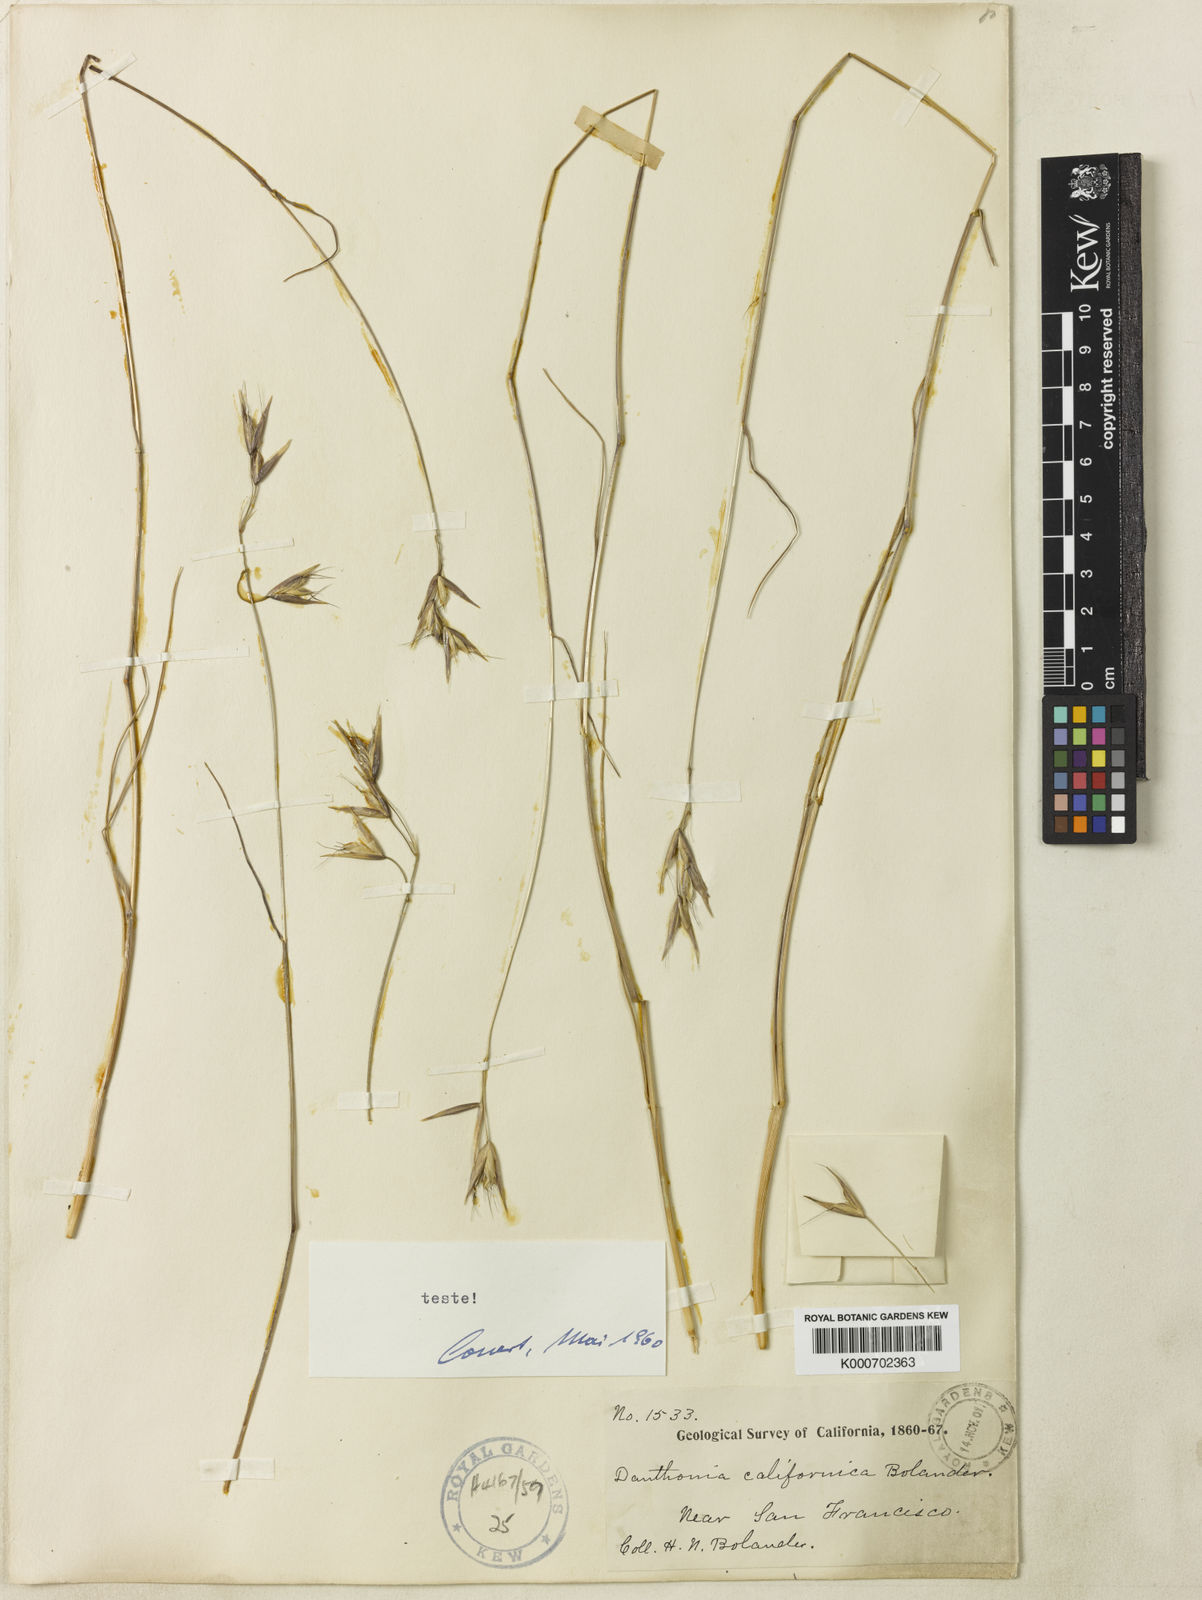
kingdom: Plantae
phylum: Tracheophyta
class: Liliopsida
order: Poales
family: Poaceae
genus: Danthonia
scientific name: Danthonia californica
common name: California oat grass
